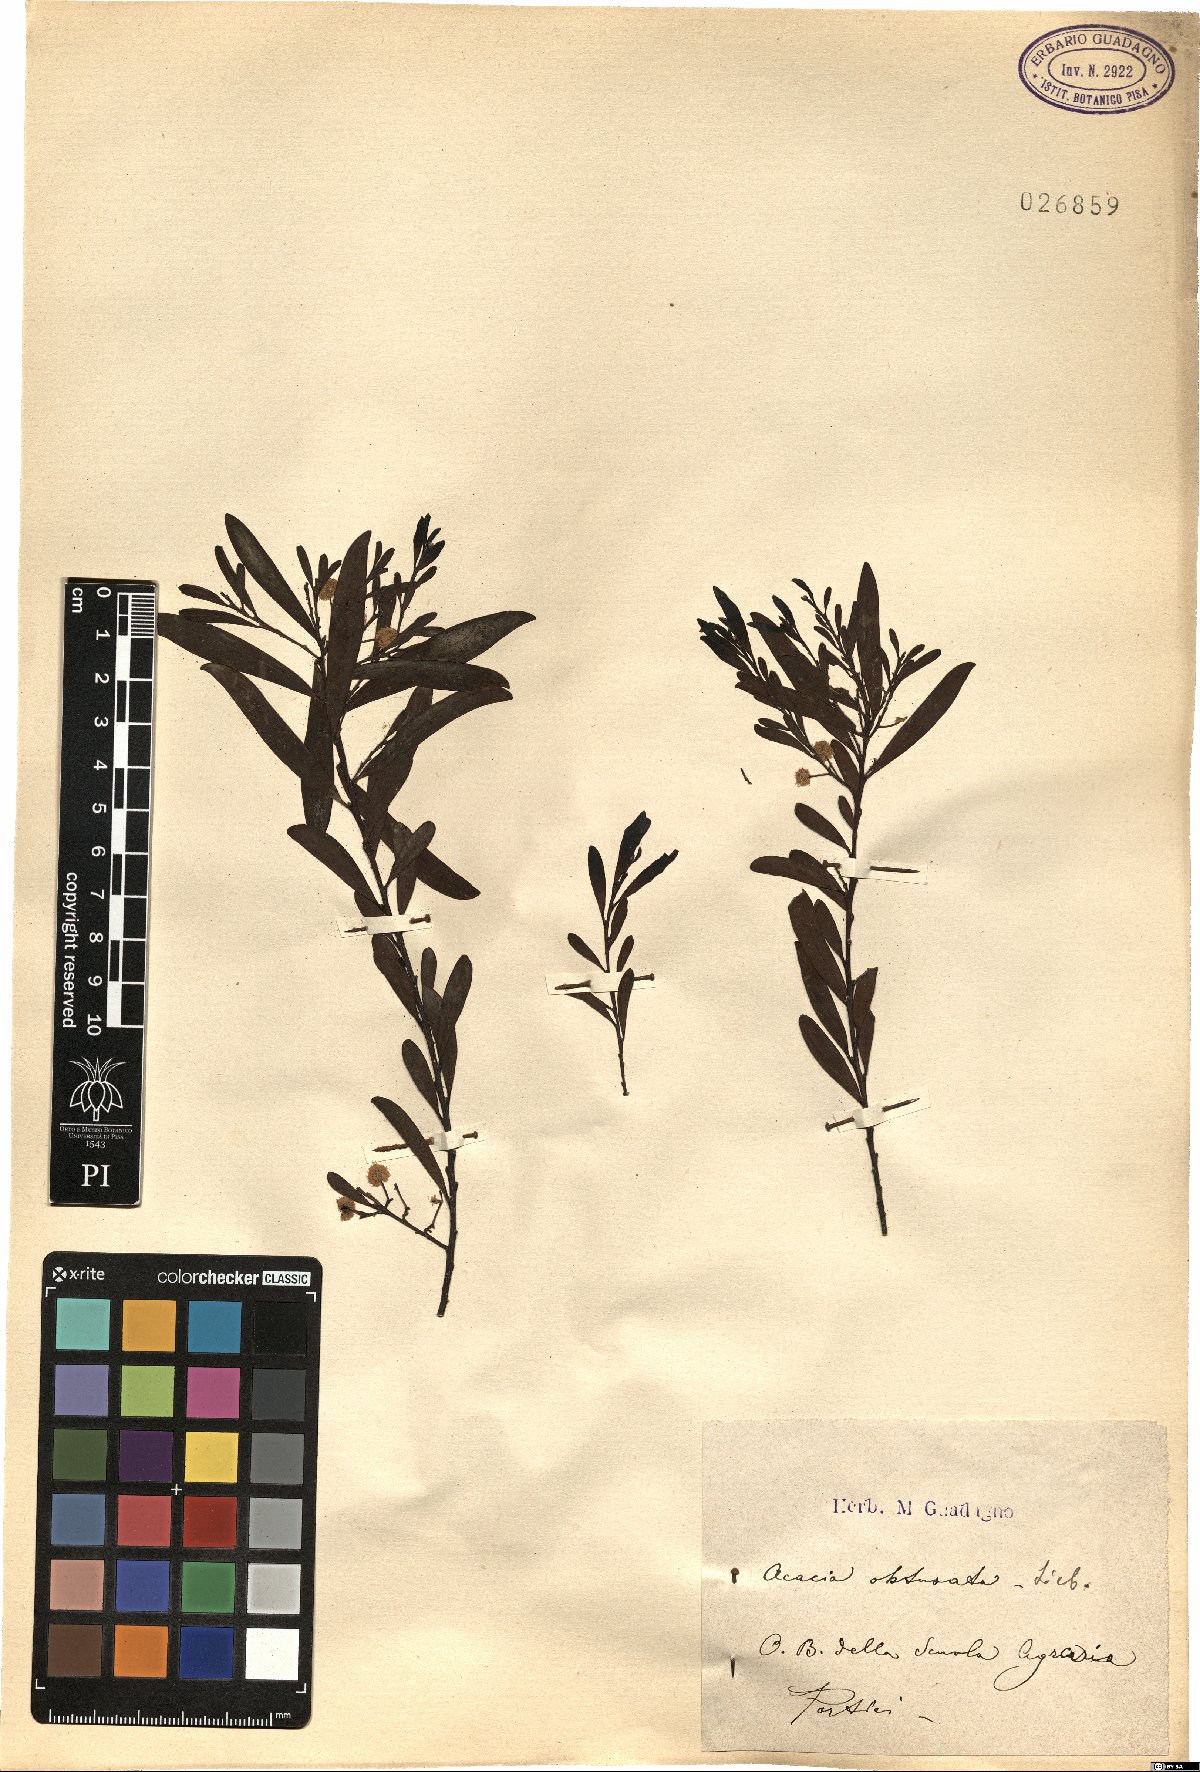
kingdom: Plantae
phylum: Tracheophyta
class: Magnoliopsida
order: Fabales
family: Fabaceae
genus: Acacia
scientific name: Acacia obtusata
